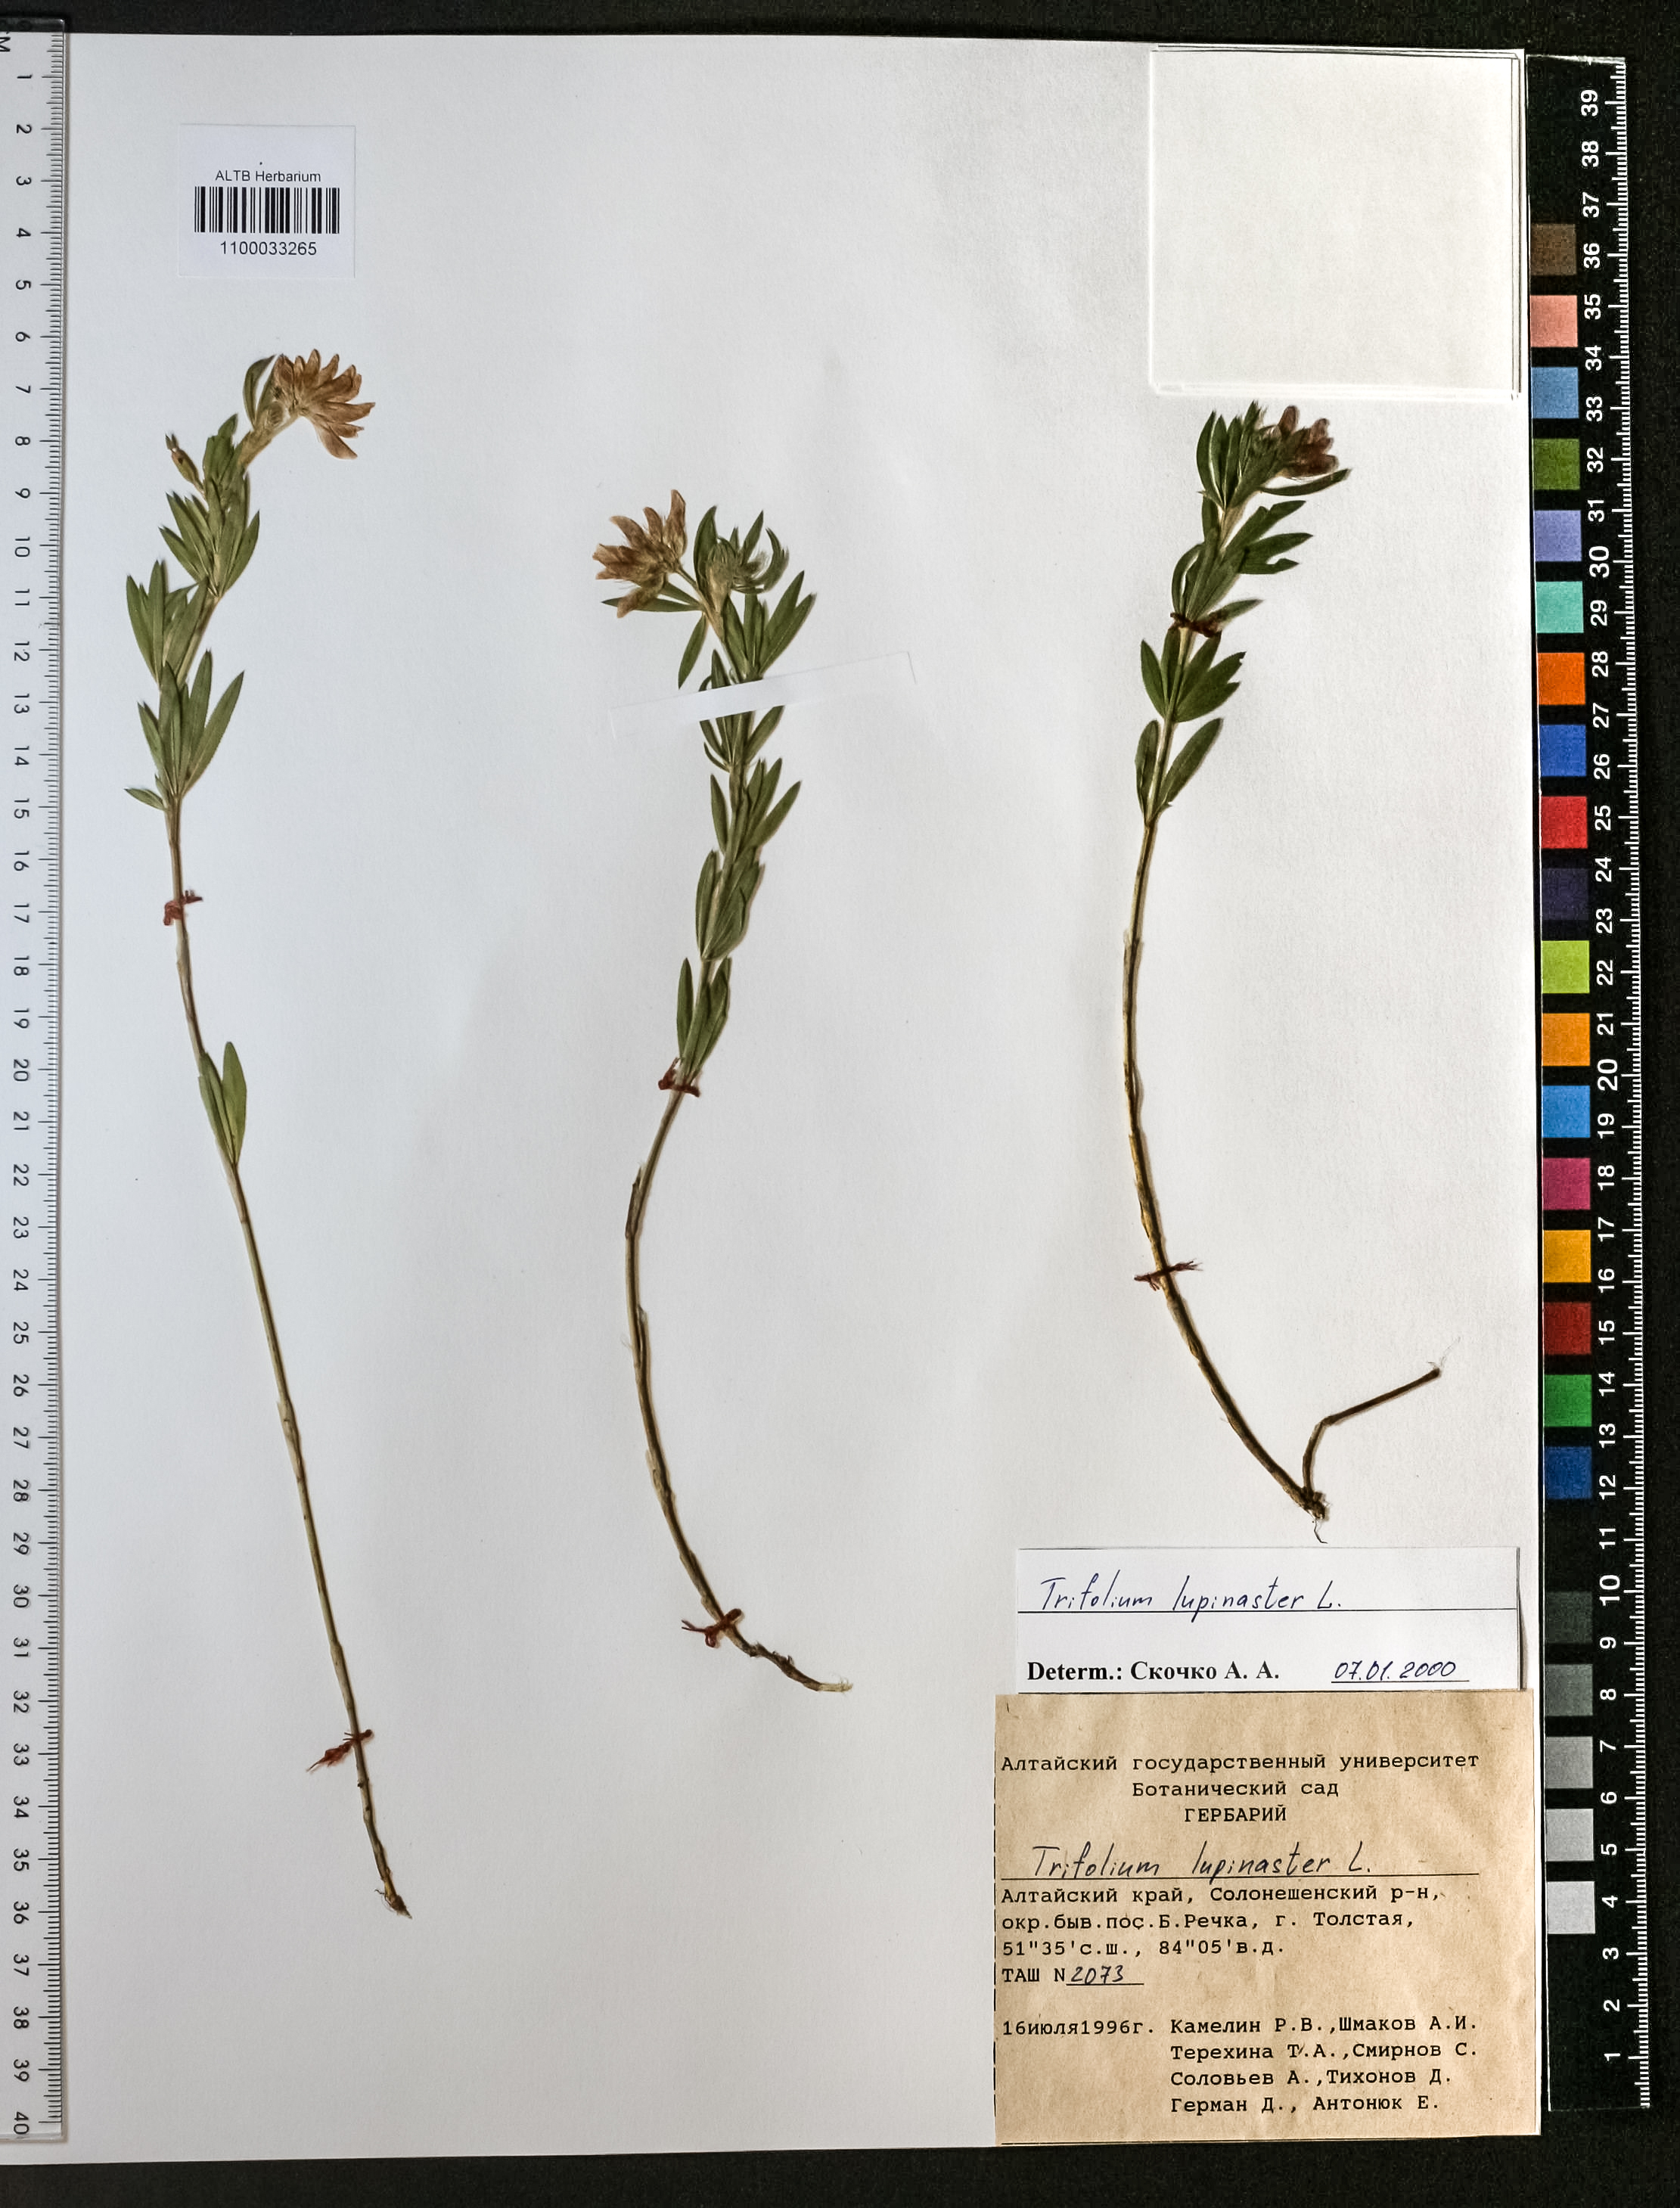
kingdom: Plantae
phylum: Tracheophyta
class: Magnoliopsida
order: Fabales
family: Fabaceae
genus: Trifolium
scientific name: Trifolium lupinaster
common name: Lupine clover
